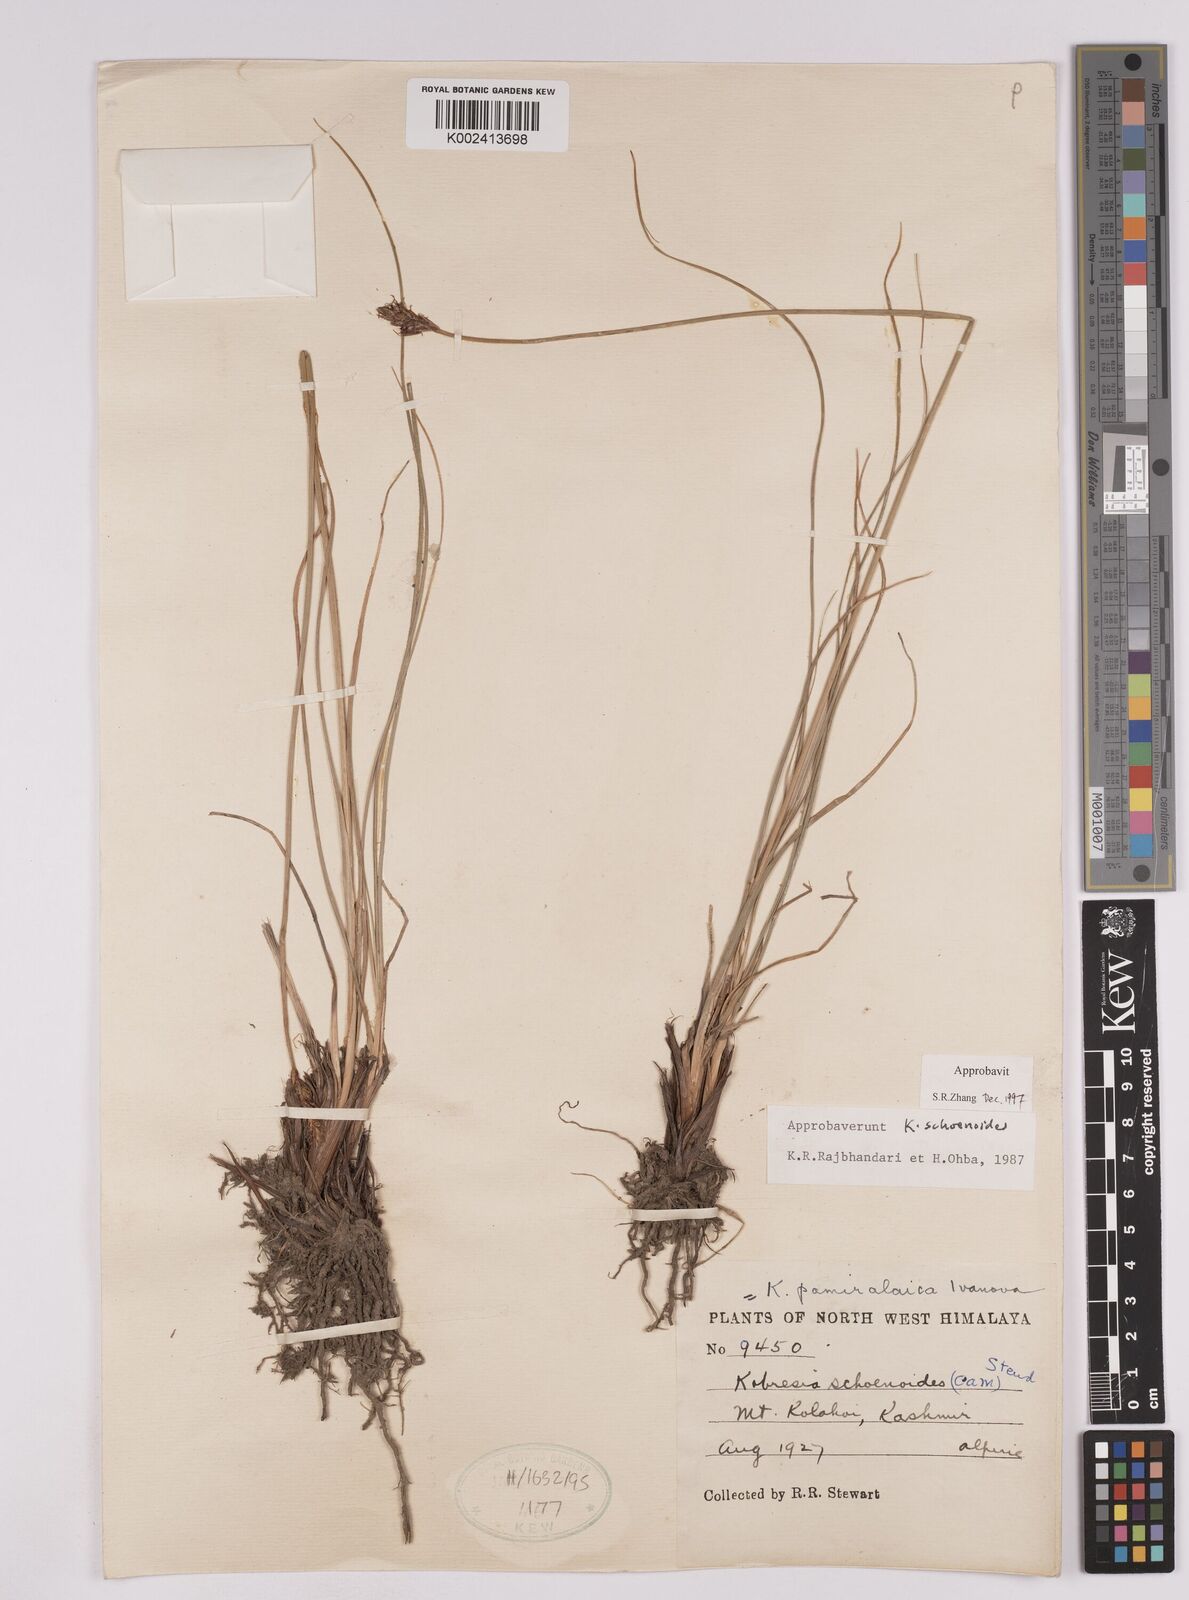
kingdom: Plantae
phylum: Tracheophyta
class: Liliopsida
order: Poales
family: Cyperaceae
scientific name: Cyperaceae
